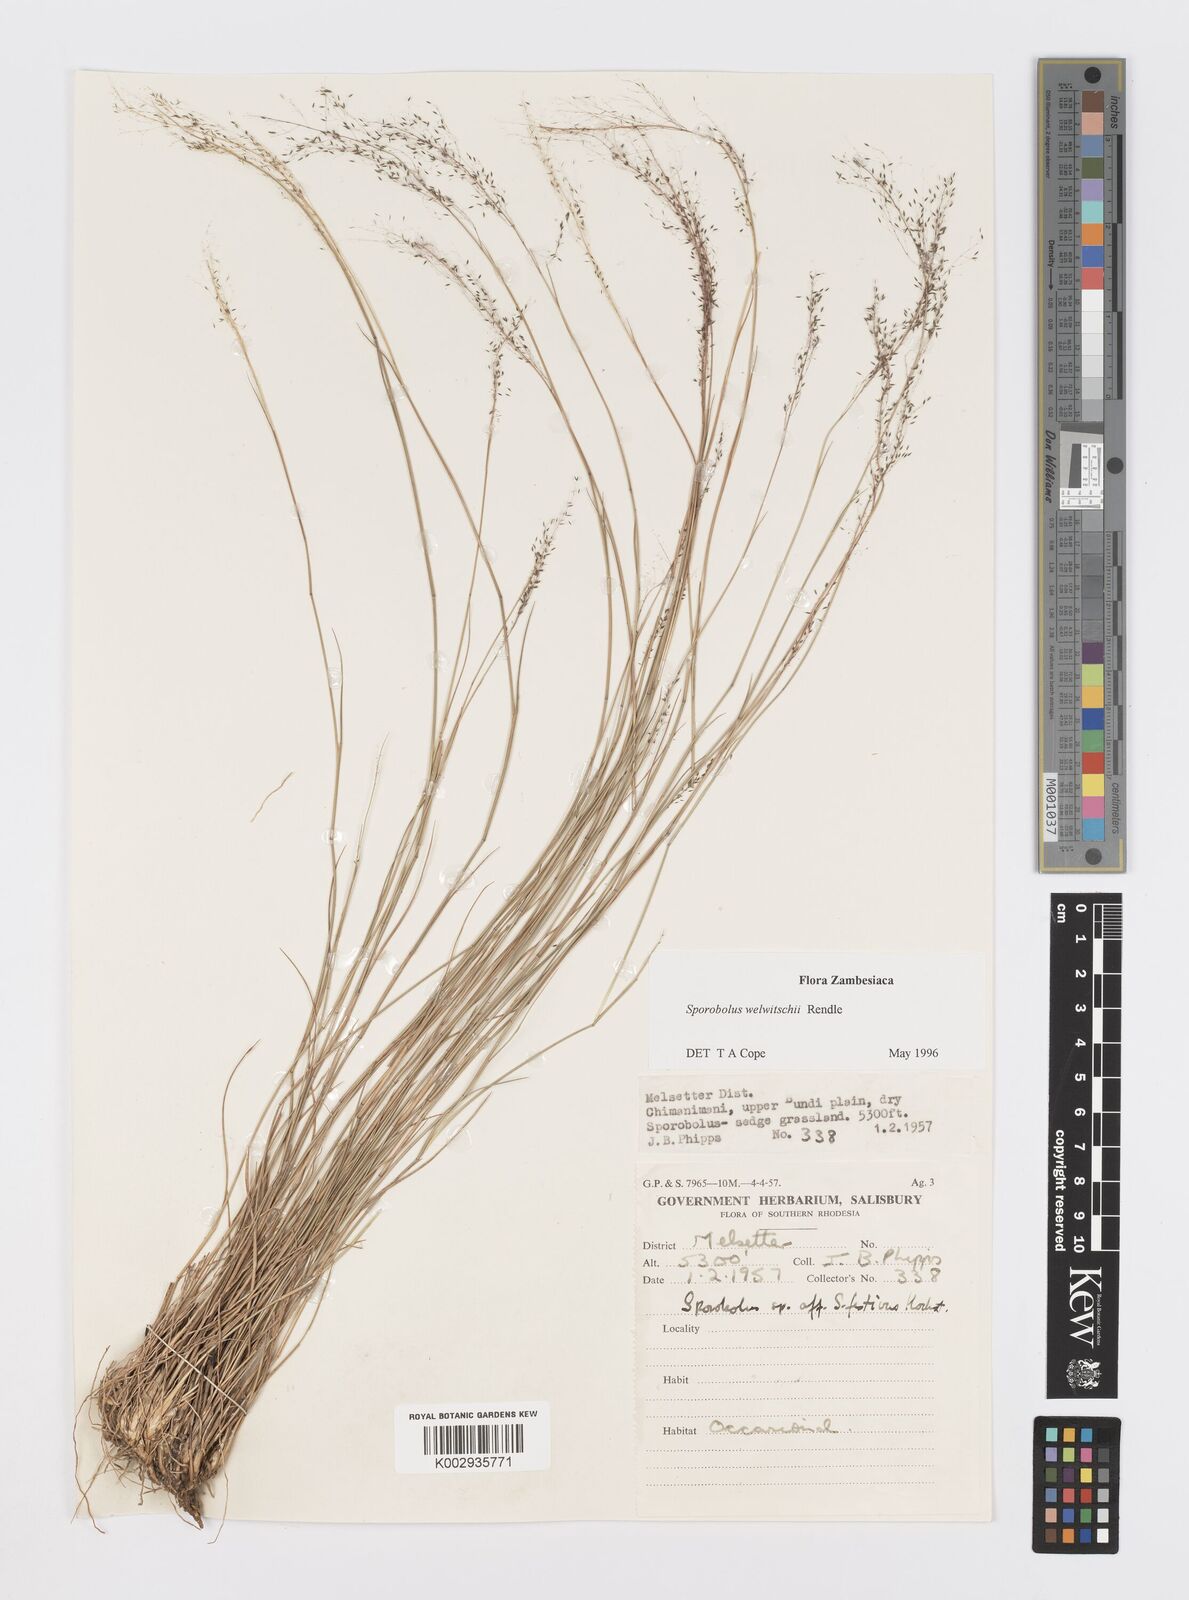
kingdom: Plantae
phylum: Tracheophyta
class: Liliopsida
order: Poales
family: Poaceae
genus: Sporobolus
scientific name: Sporobolus welwitschii
